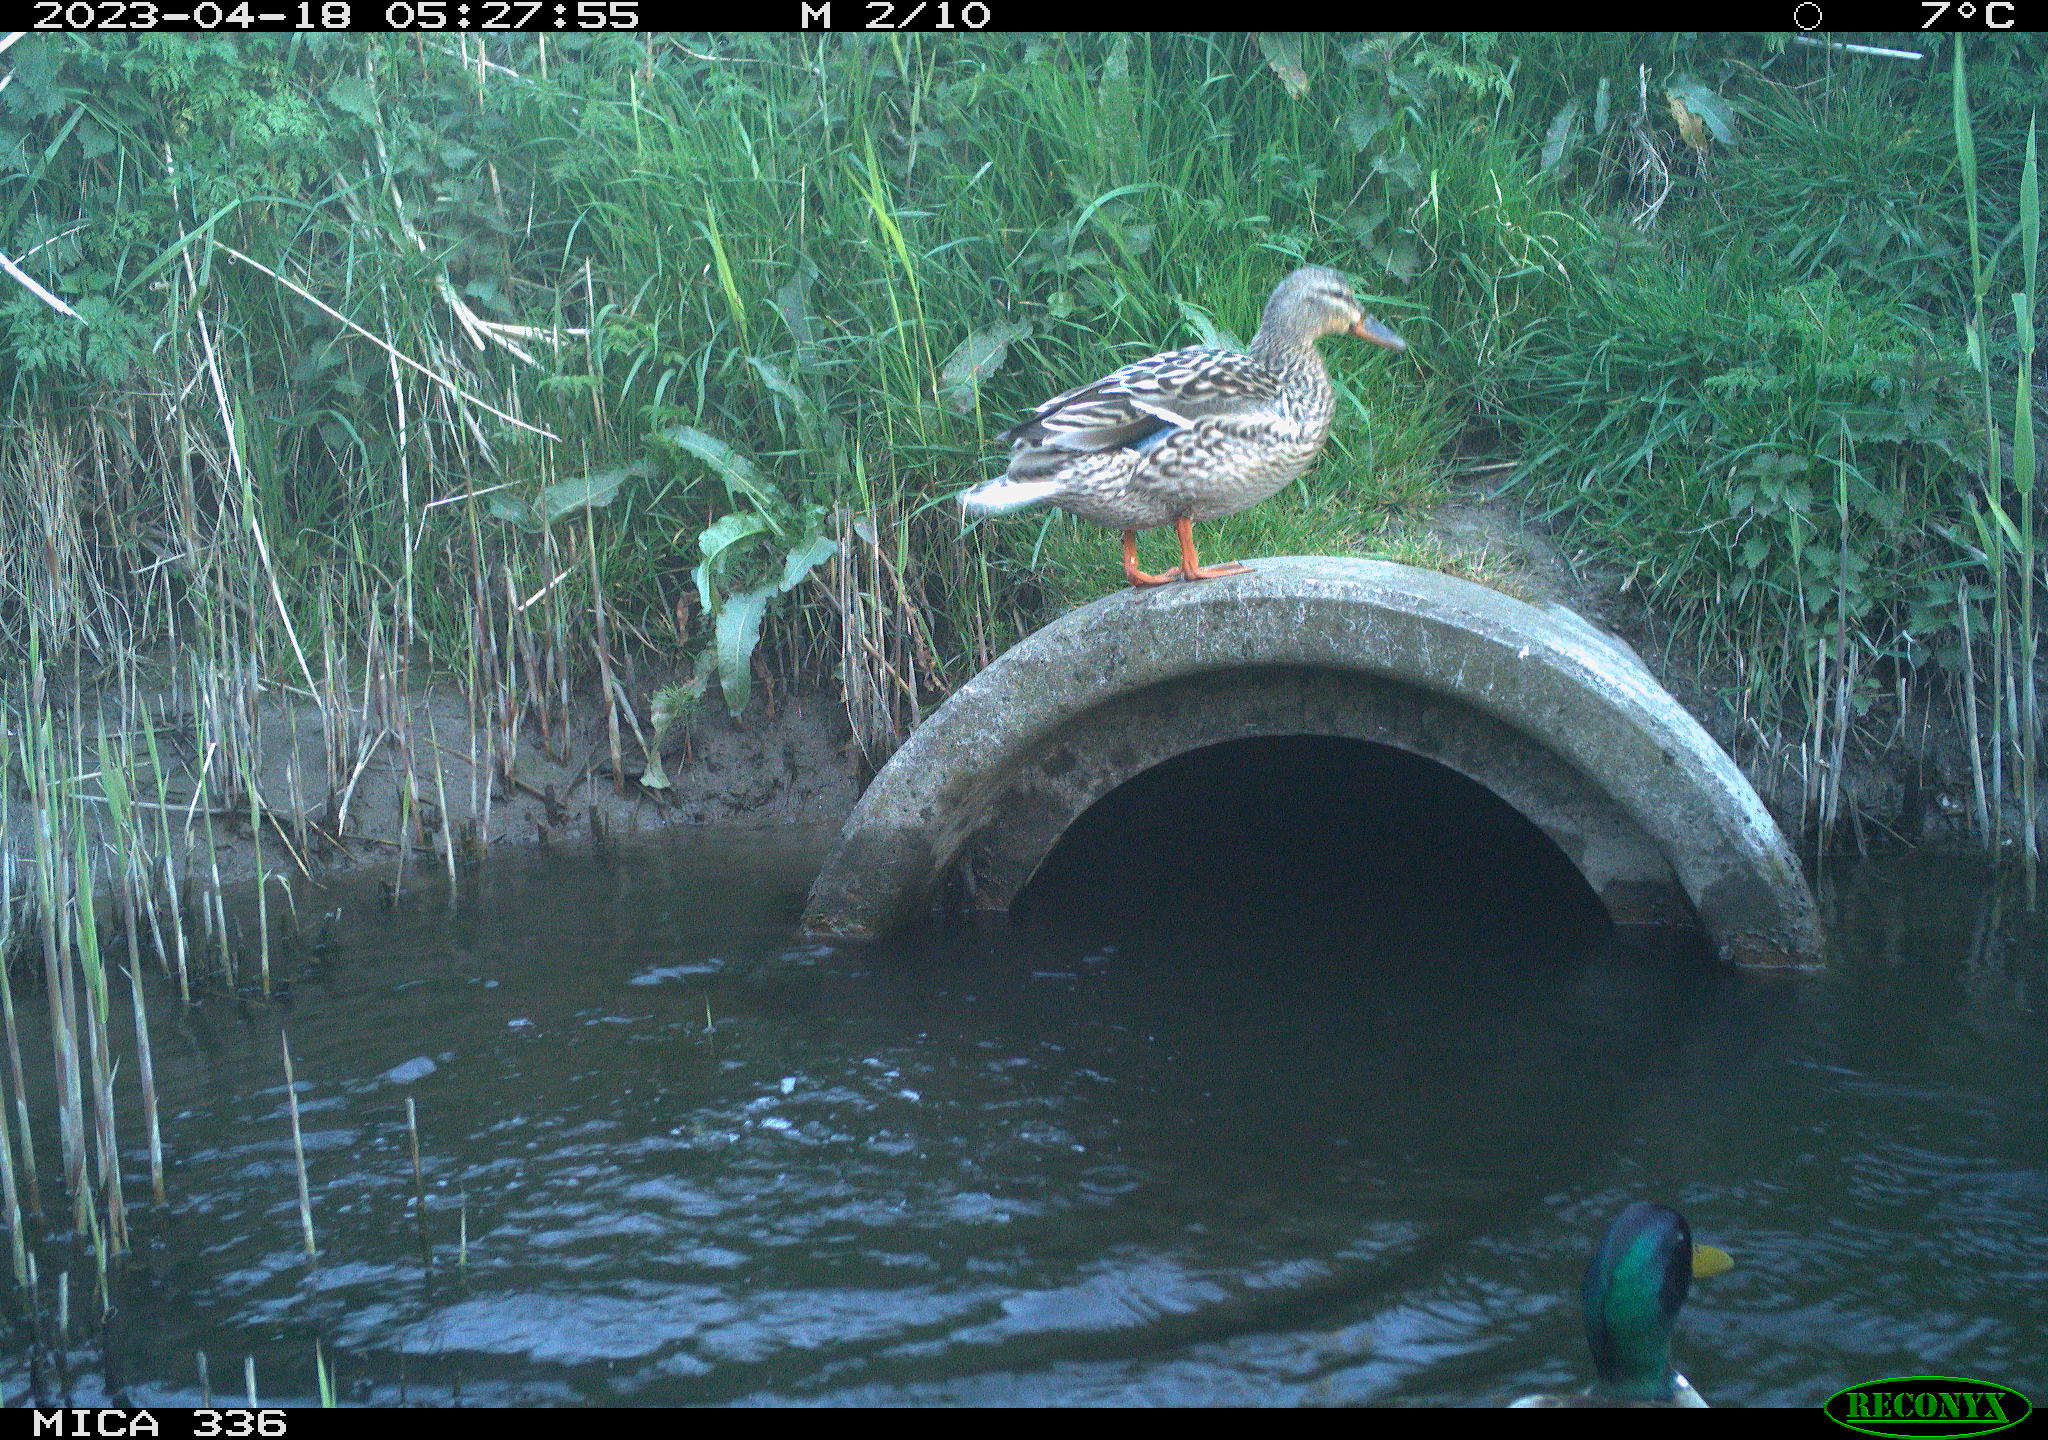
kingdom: Animalia
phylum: Chordata
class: Aves
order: Anseriformes
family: Anatidae
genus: Anas
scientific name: Anas
